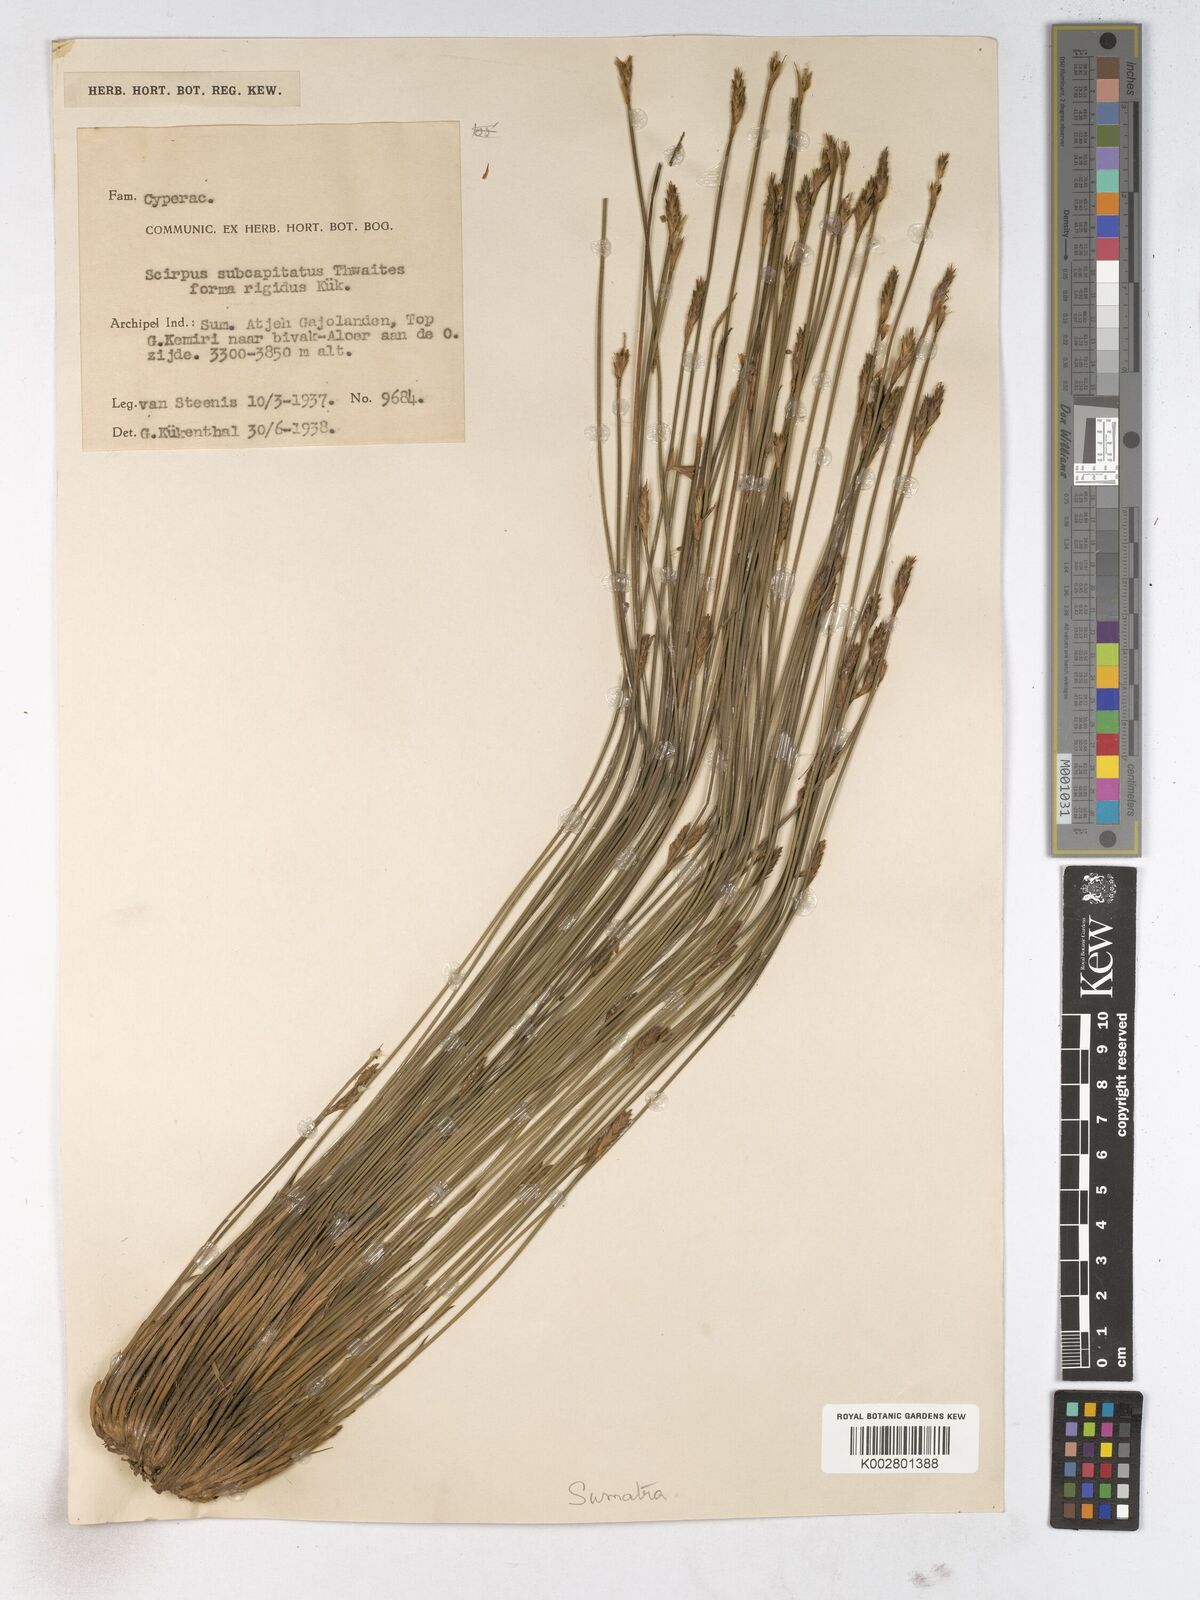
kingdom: Plantae
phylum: Tracheophyta
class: Liliopsida
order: Poales
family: Cyperaceae
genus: Trichophorum
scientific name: Trichophorum subcapitatum
